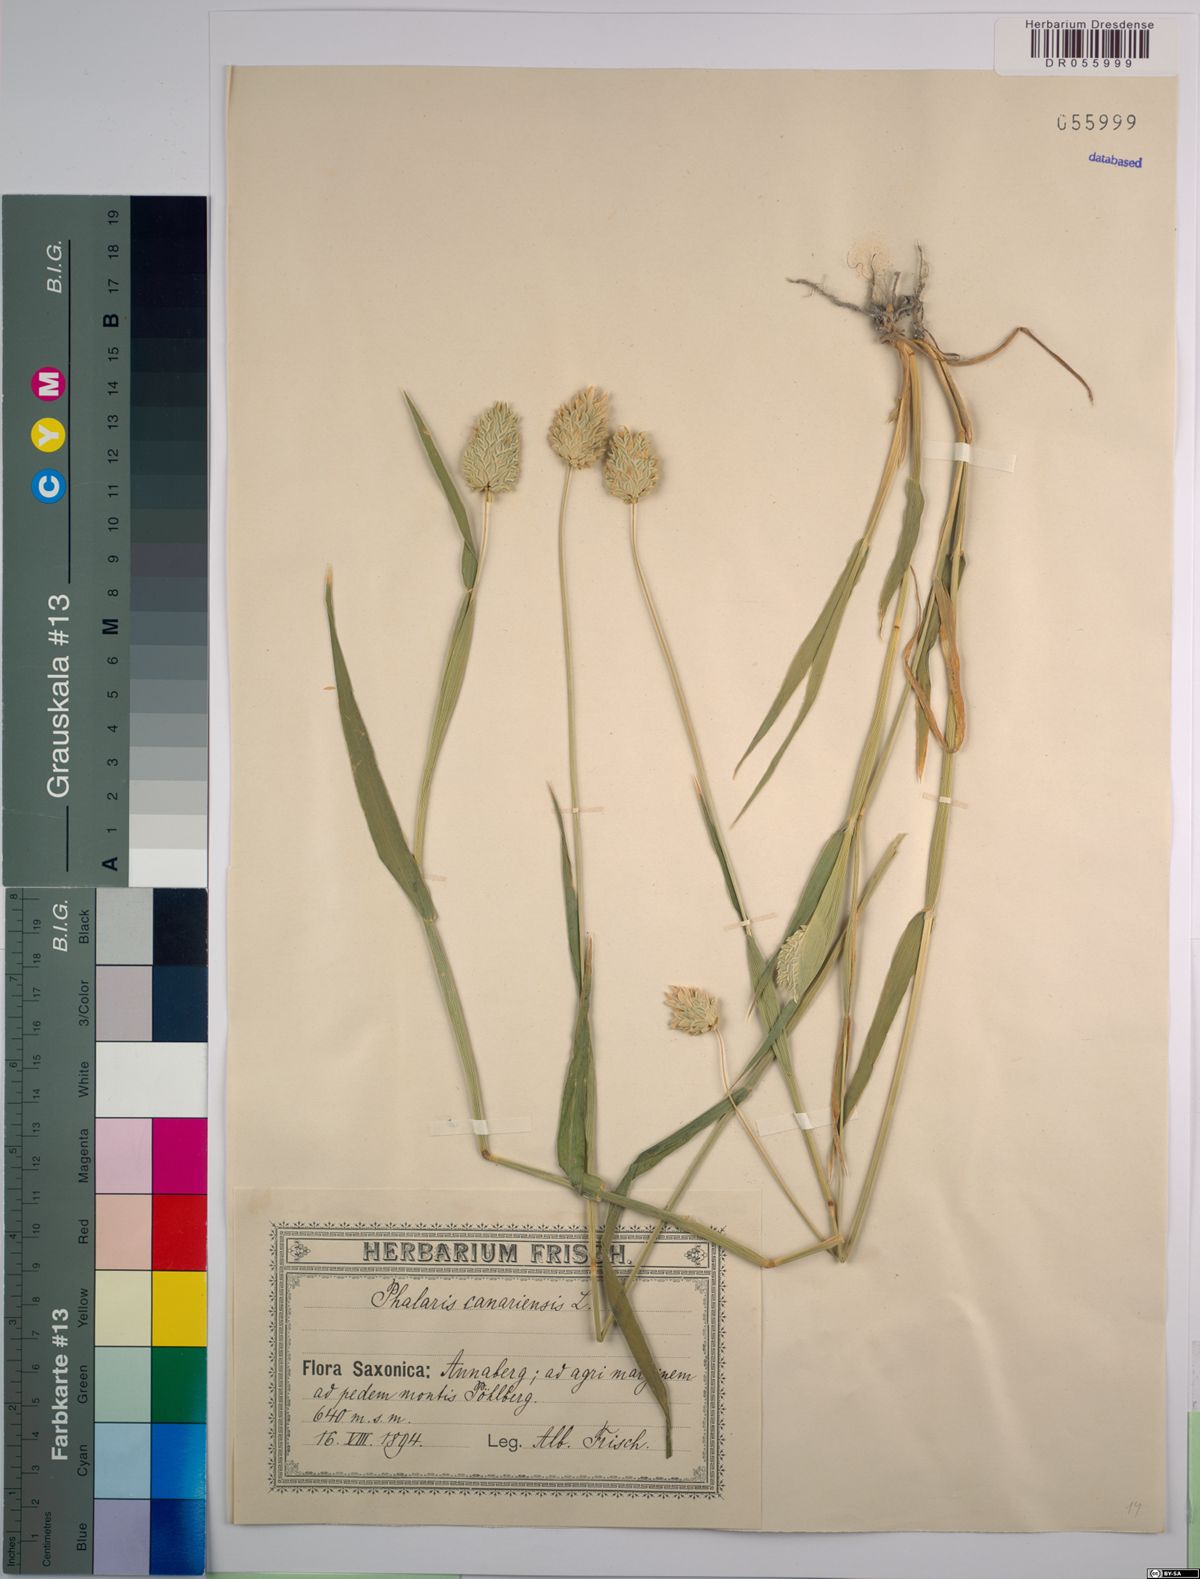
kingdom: Plantae
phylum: Tracheophyta
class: Liliopsida
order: Poales
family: Poaceae
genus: Phalaris
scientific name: Phalaris canariensis
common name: Annual canarygrass
